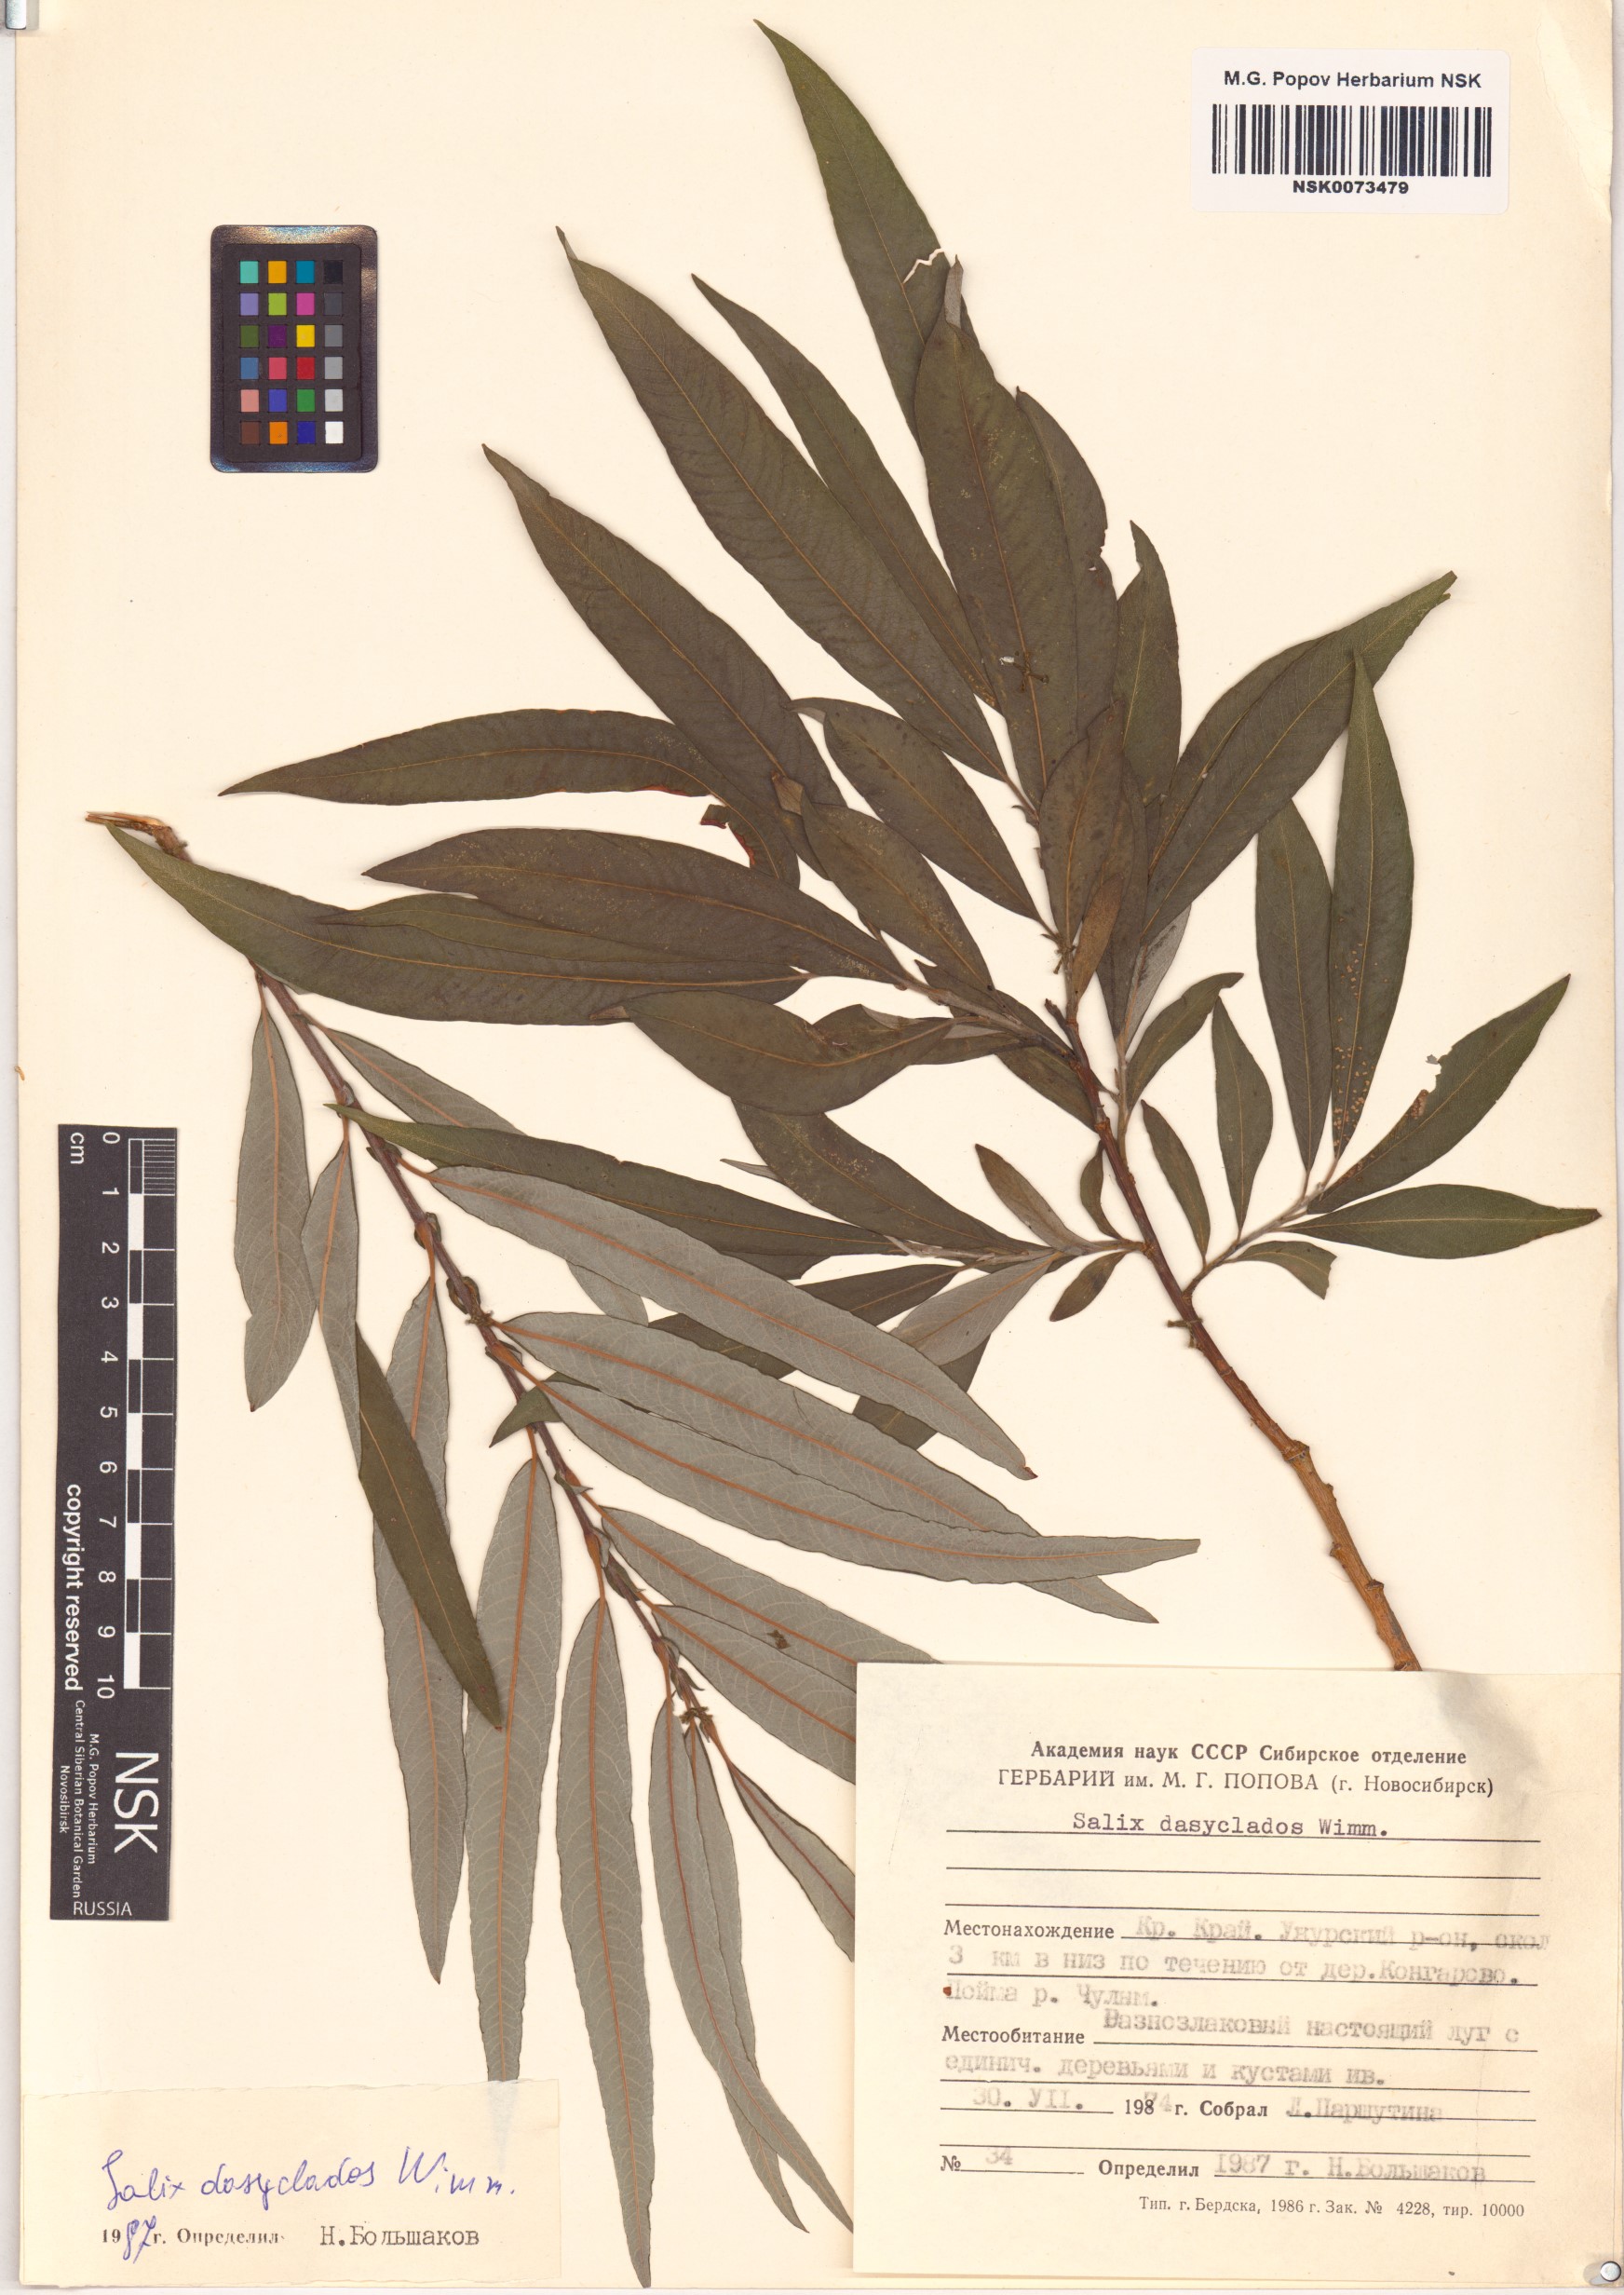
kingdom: Plantae
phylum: Tracheophyta
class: Magnoliopsida
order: Malpighiales
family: Salicaceae
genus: Salix
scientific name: Salix gmelinii
